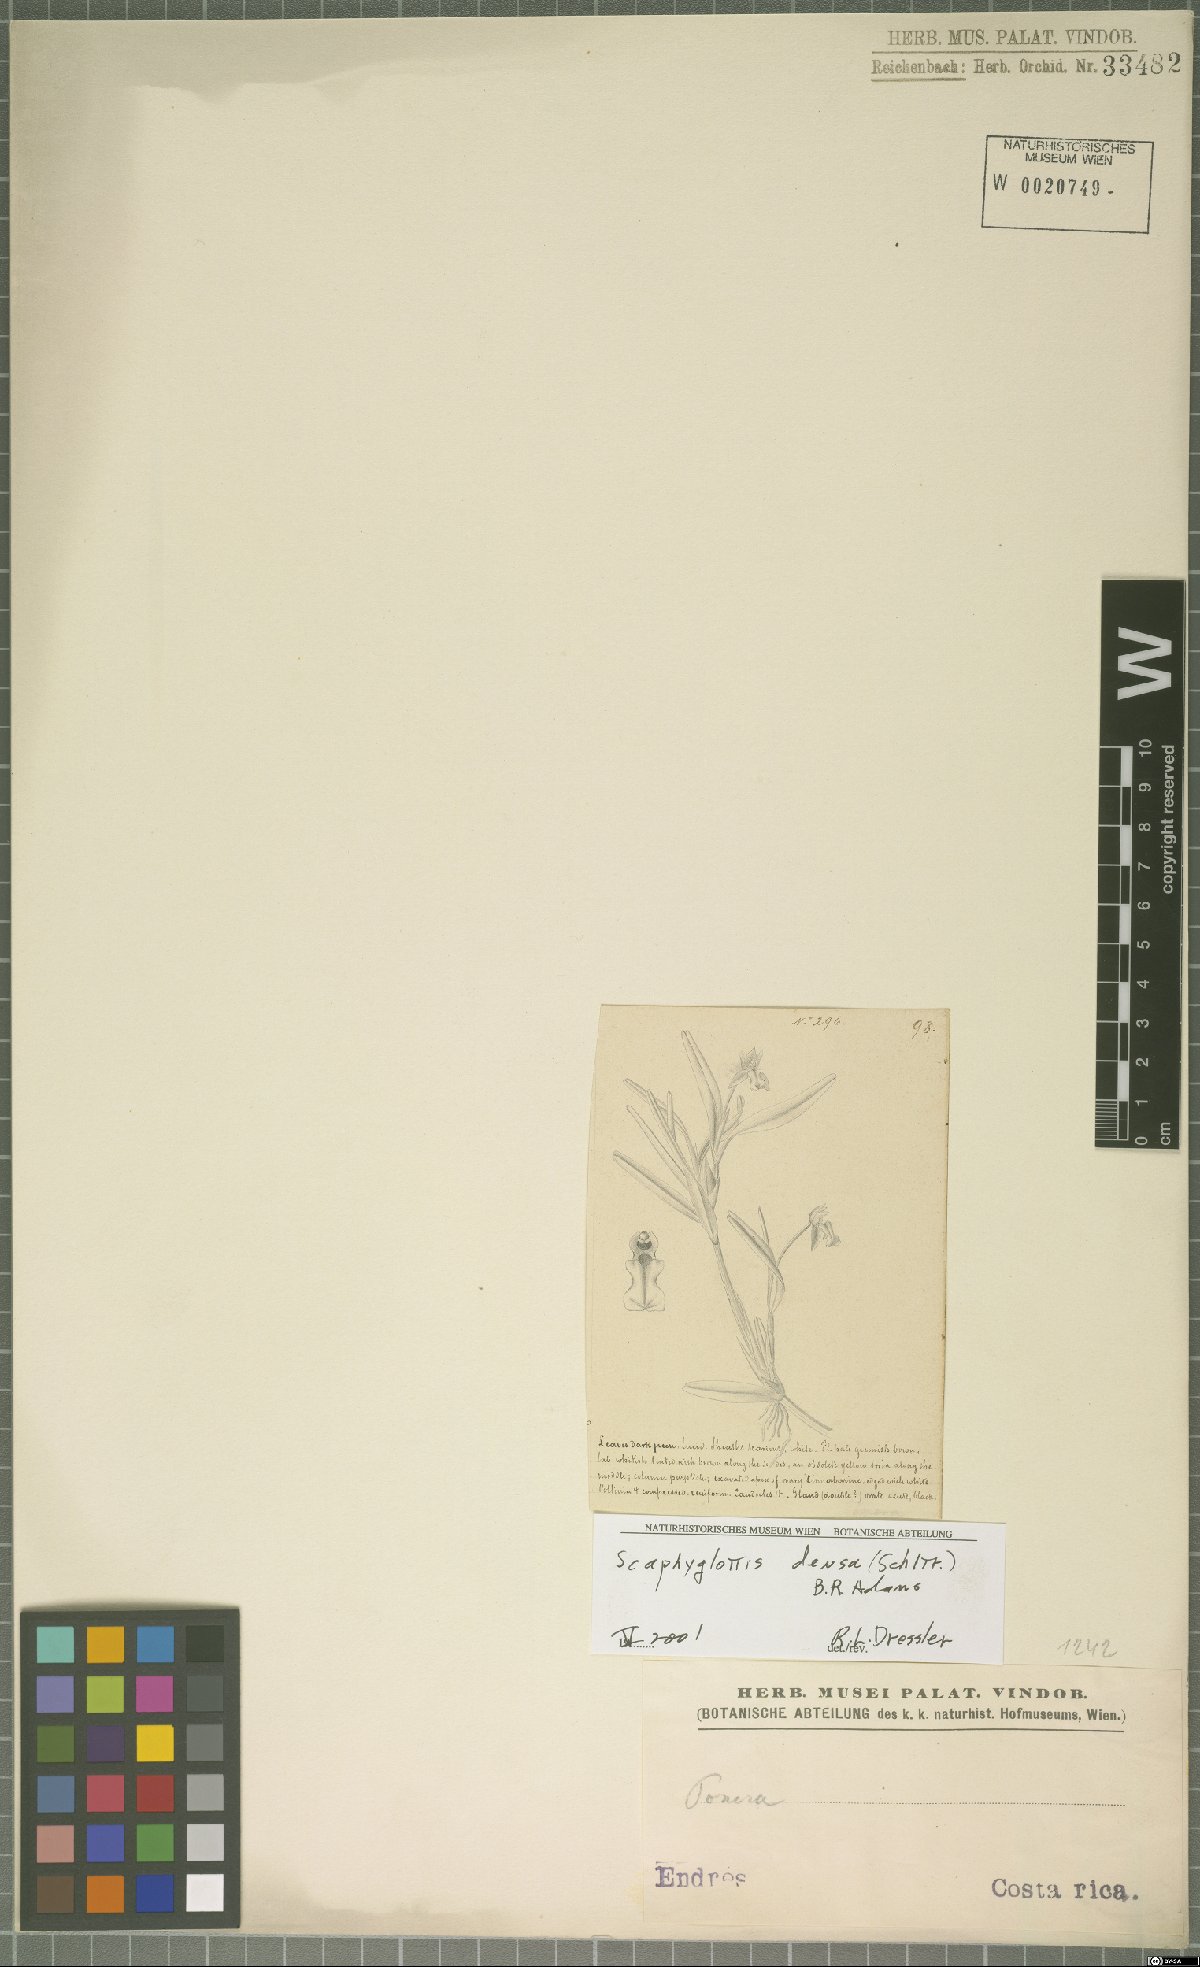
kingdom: Plantae
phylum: Tracheophyta
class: Liliopsida
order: Asparagales
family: Orchidaceae
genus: Scaphyglottis
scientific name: Scaphyglottis densa
